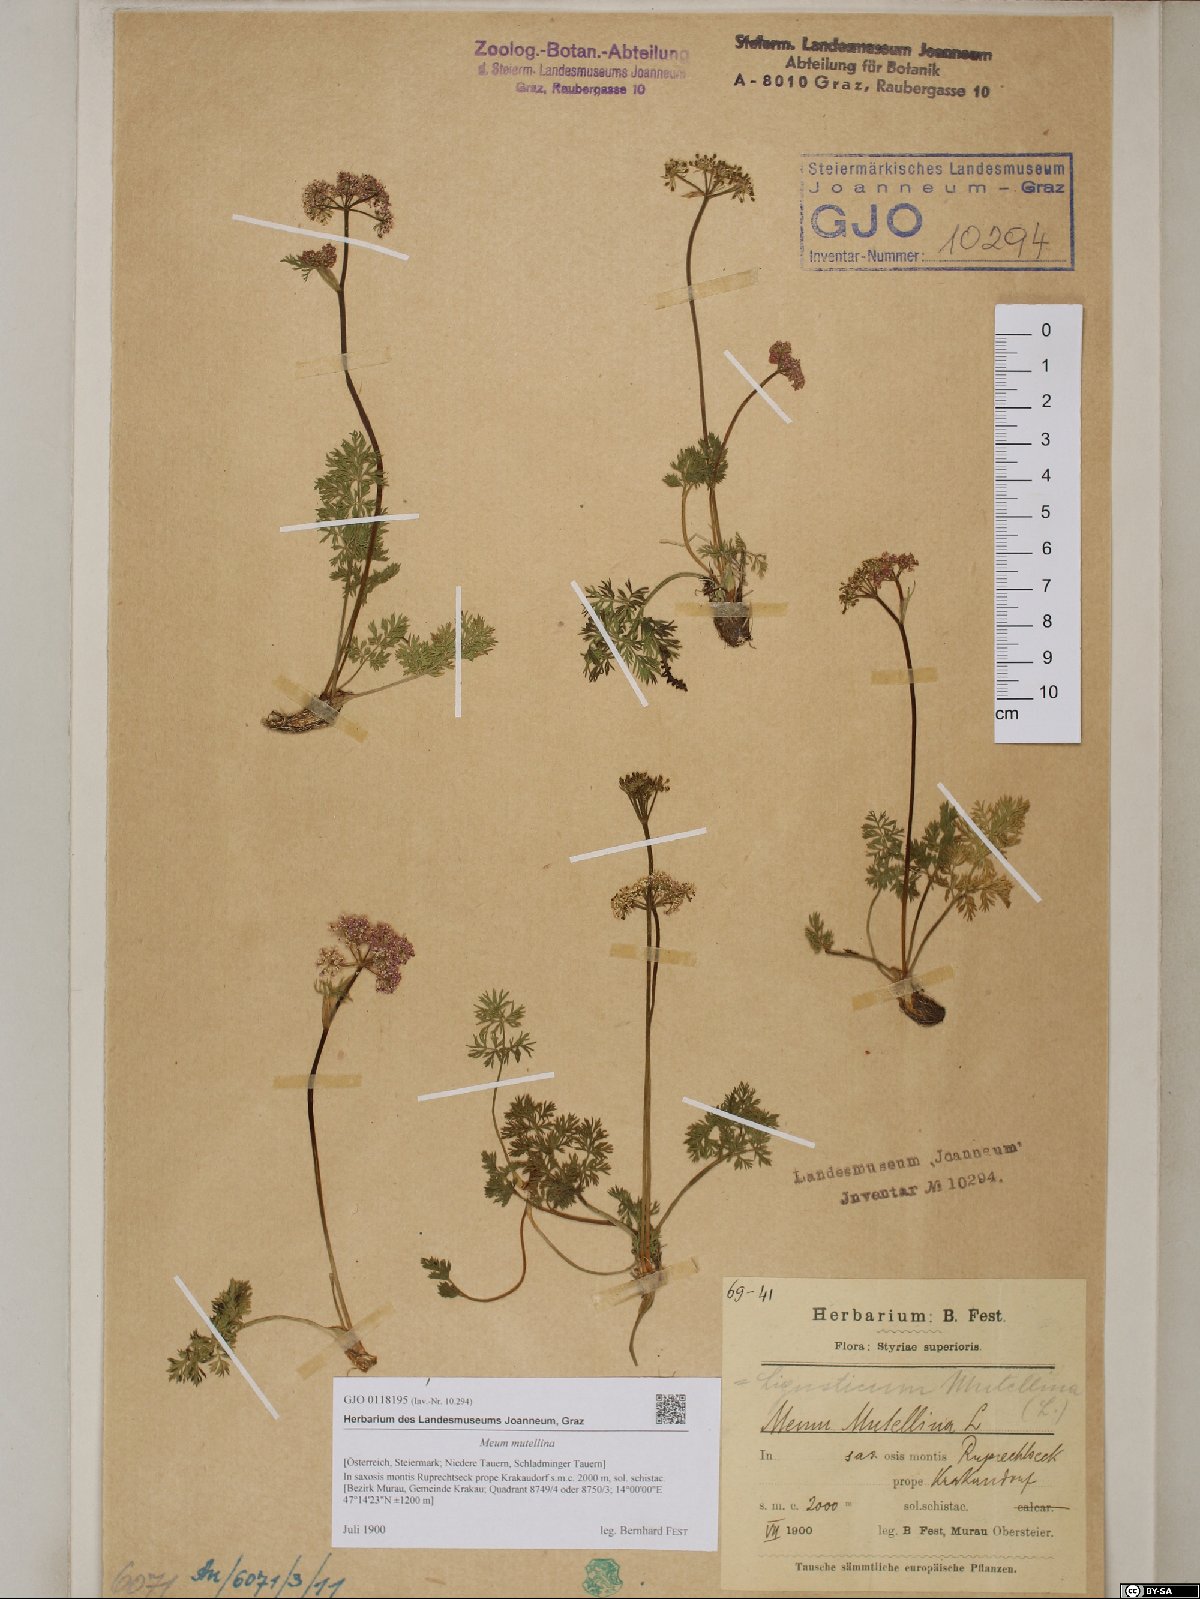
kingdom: Plantae
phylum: Tracheophyta
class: Magnoliopsida
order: Apiales
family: Apiaceae
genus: Mutellina
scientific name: Mutellina adonidifolia
